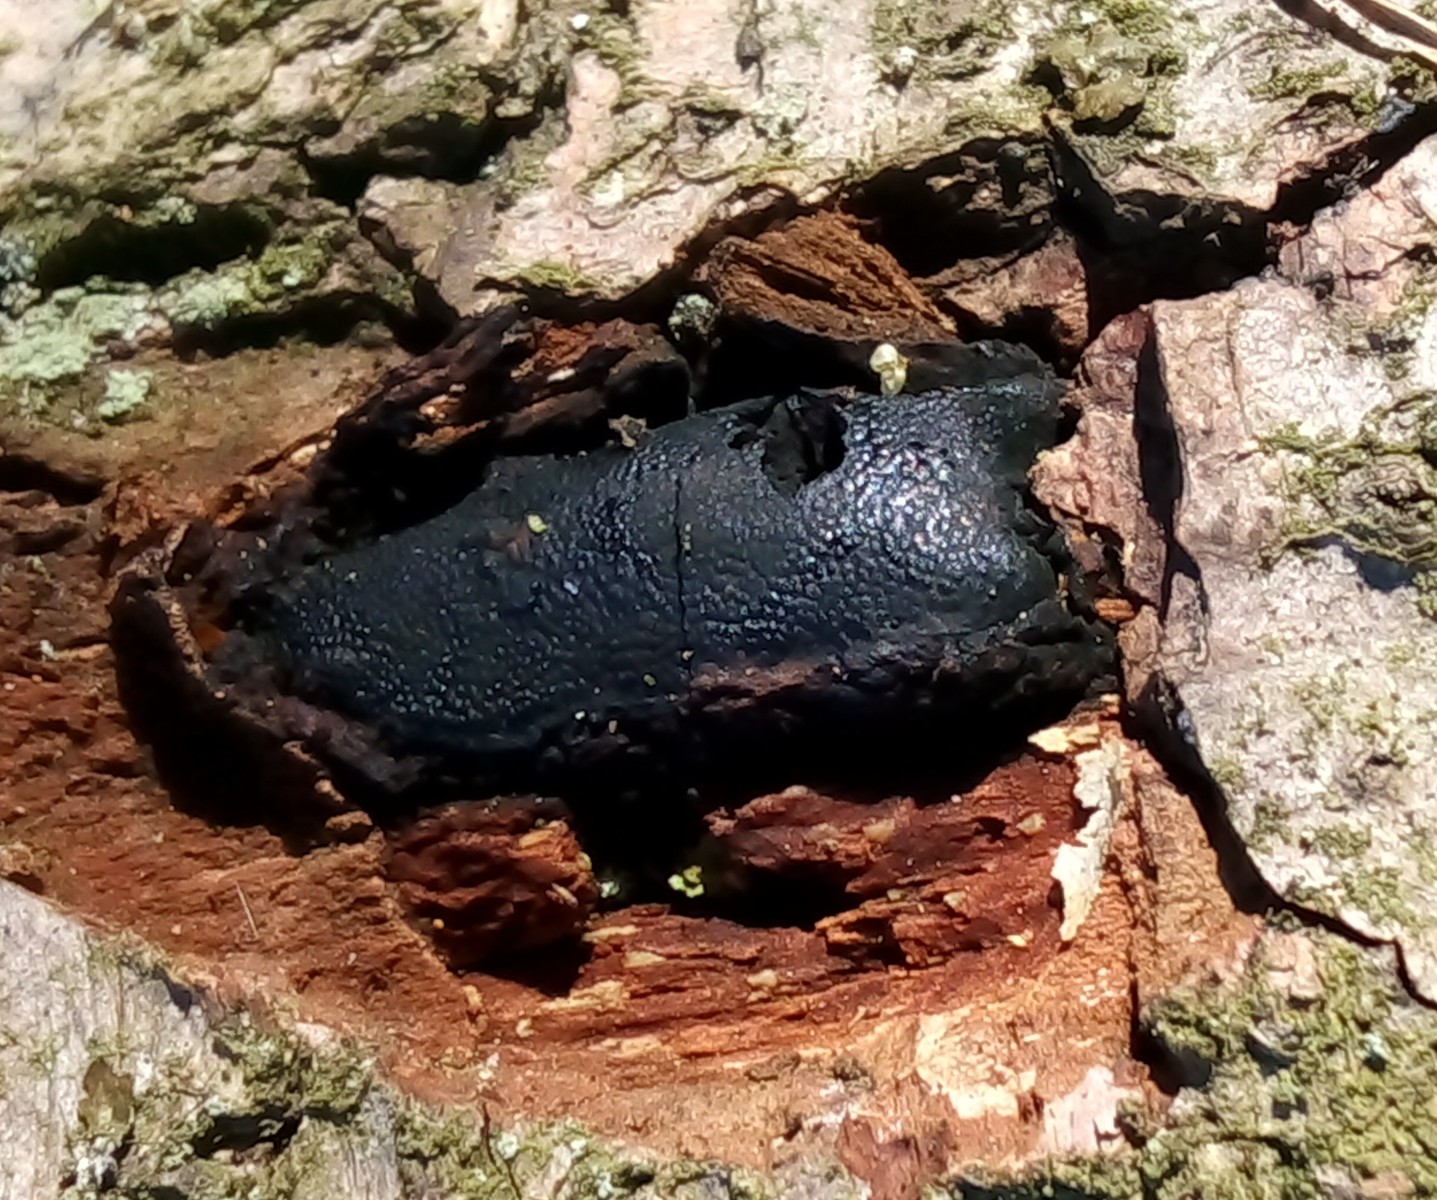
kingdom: Fungi
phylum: Ascomycota
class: Sordariomycetes
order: Boliniales
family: Boliniaceae
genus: Camarops
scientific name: Camarops polysperma
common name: elle-kulsnegl
